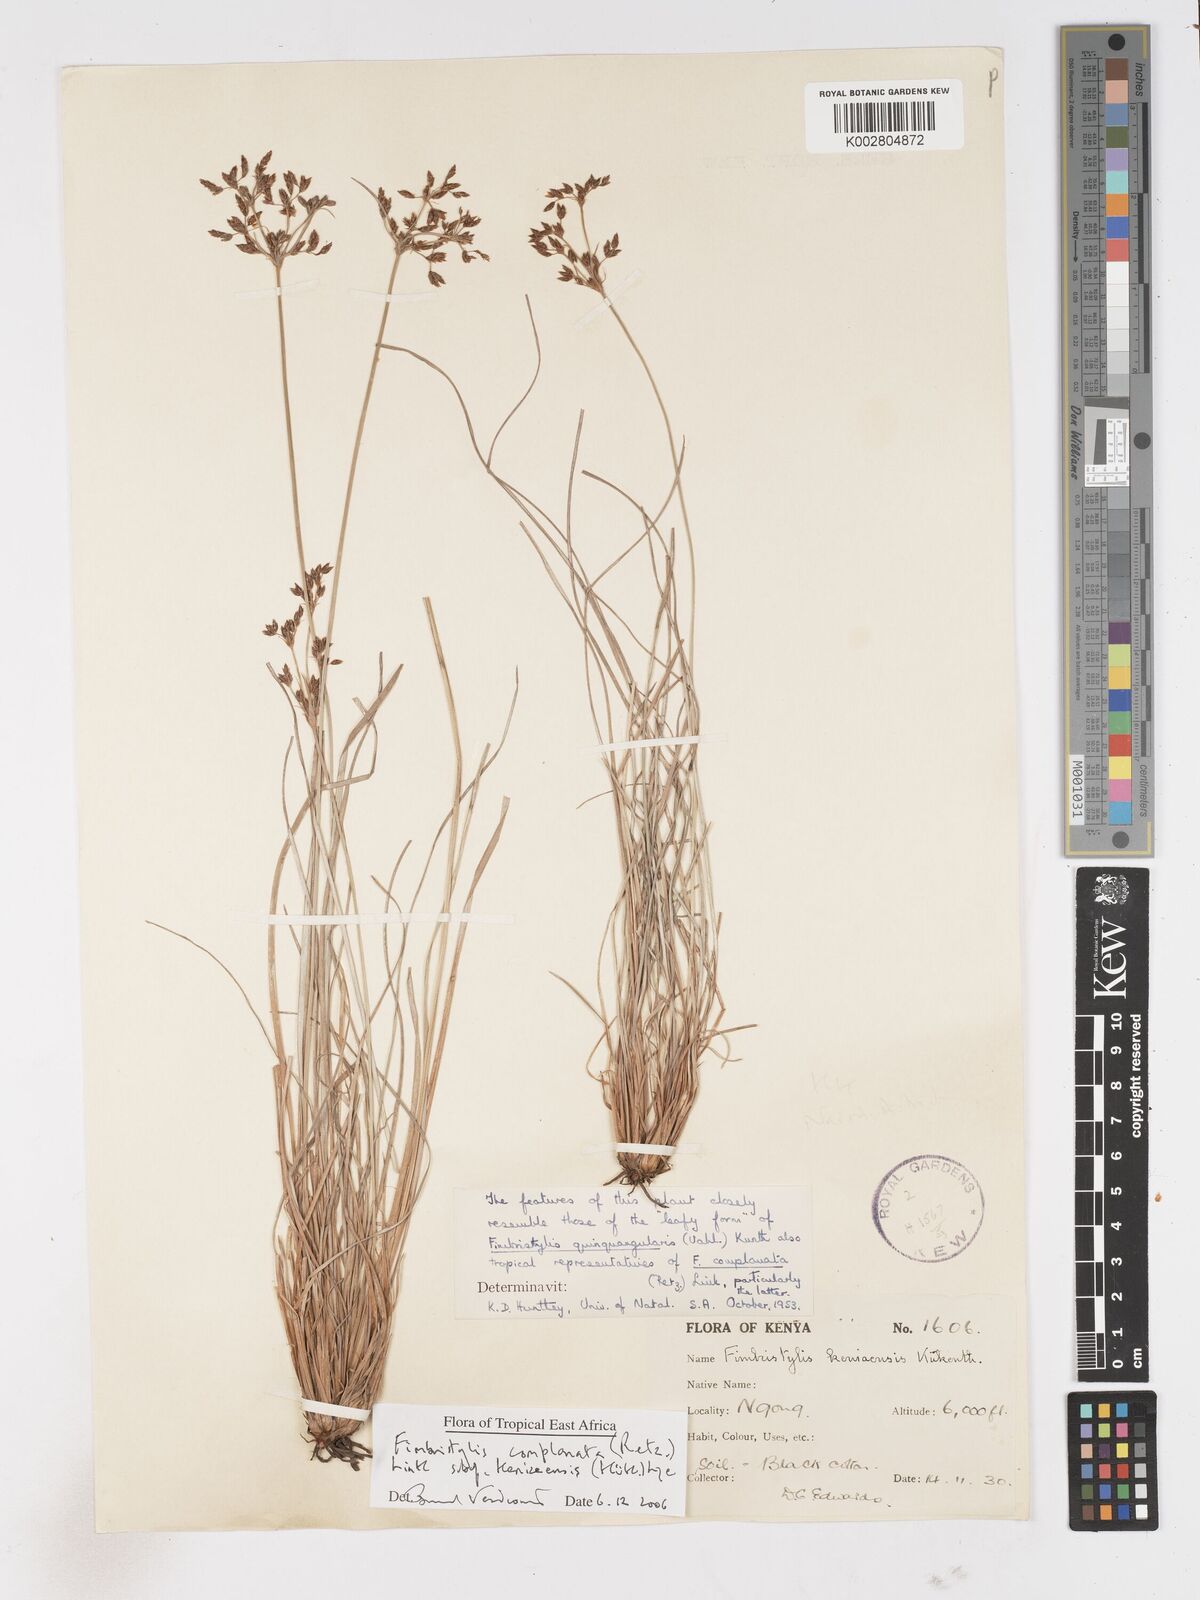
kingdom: Plantae
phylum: Tracheophyta
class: Liliopsida
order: Poales
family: Cyperaceae
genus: Fimbristylis
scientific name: Fimbristylis complanata
